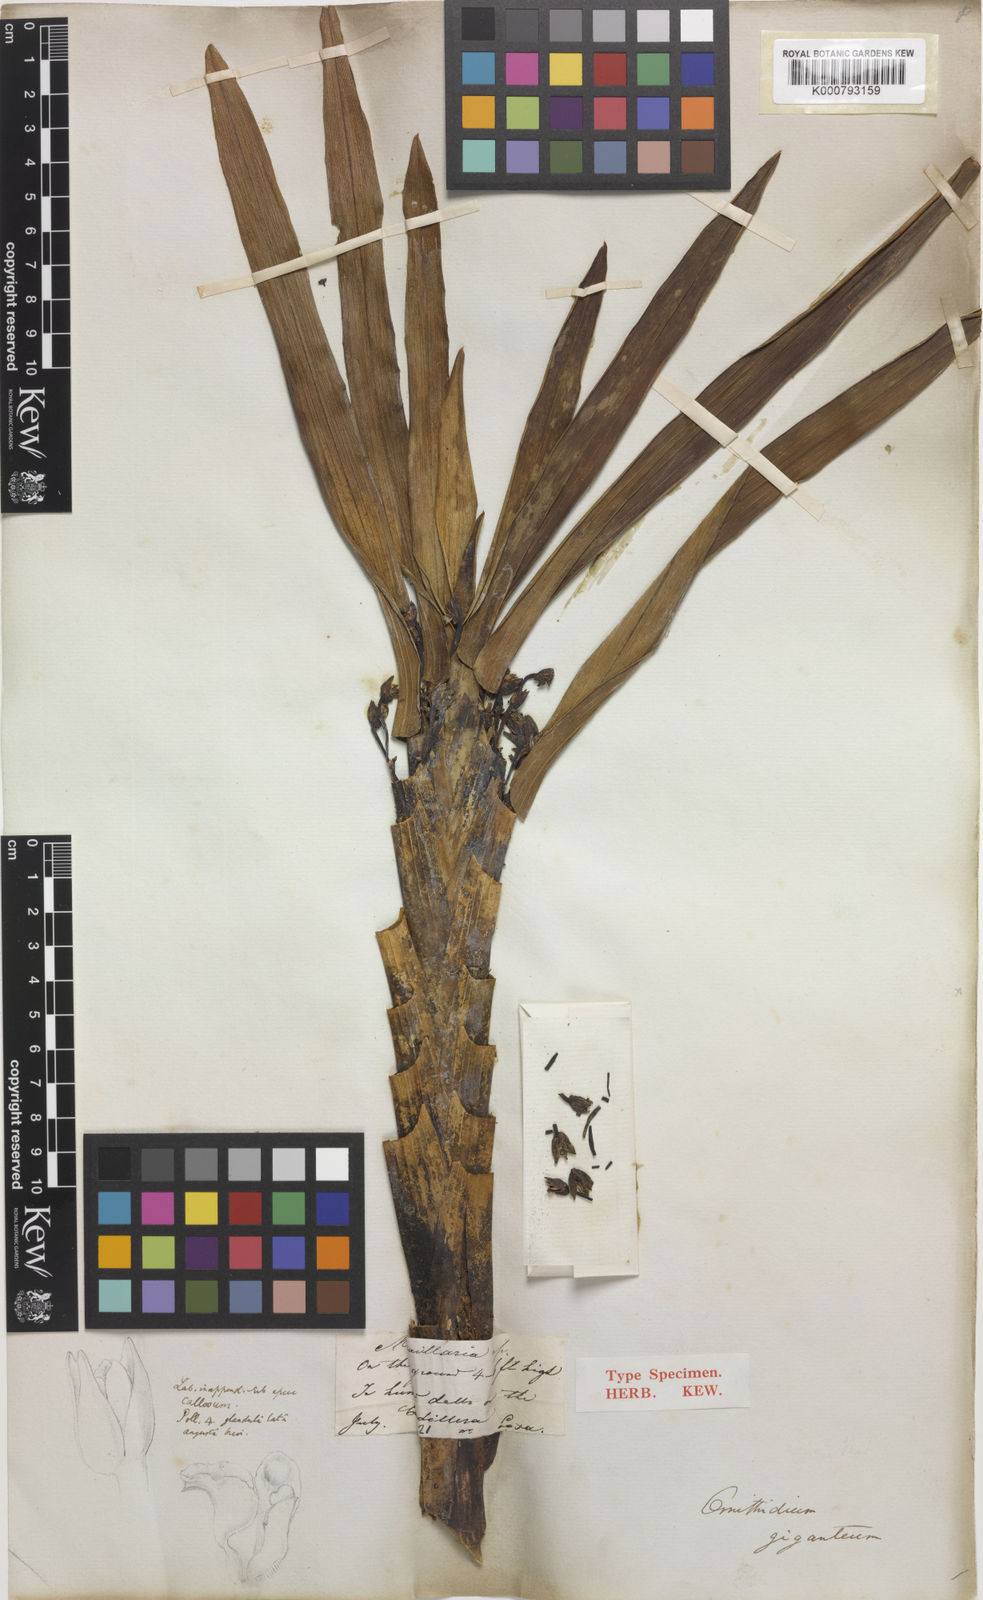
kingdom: Plantae
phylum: Tracheophyta
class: Liliopsida
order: Asparagales
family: Orchidaceae
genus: Maxillaria
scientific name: Maxillaria cordyline
